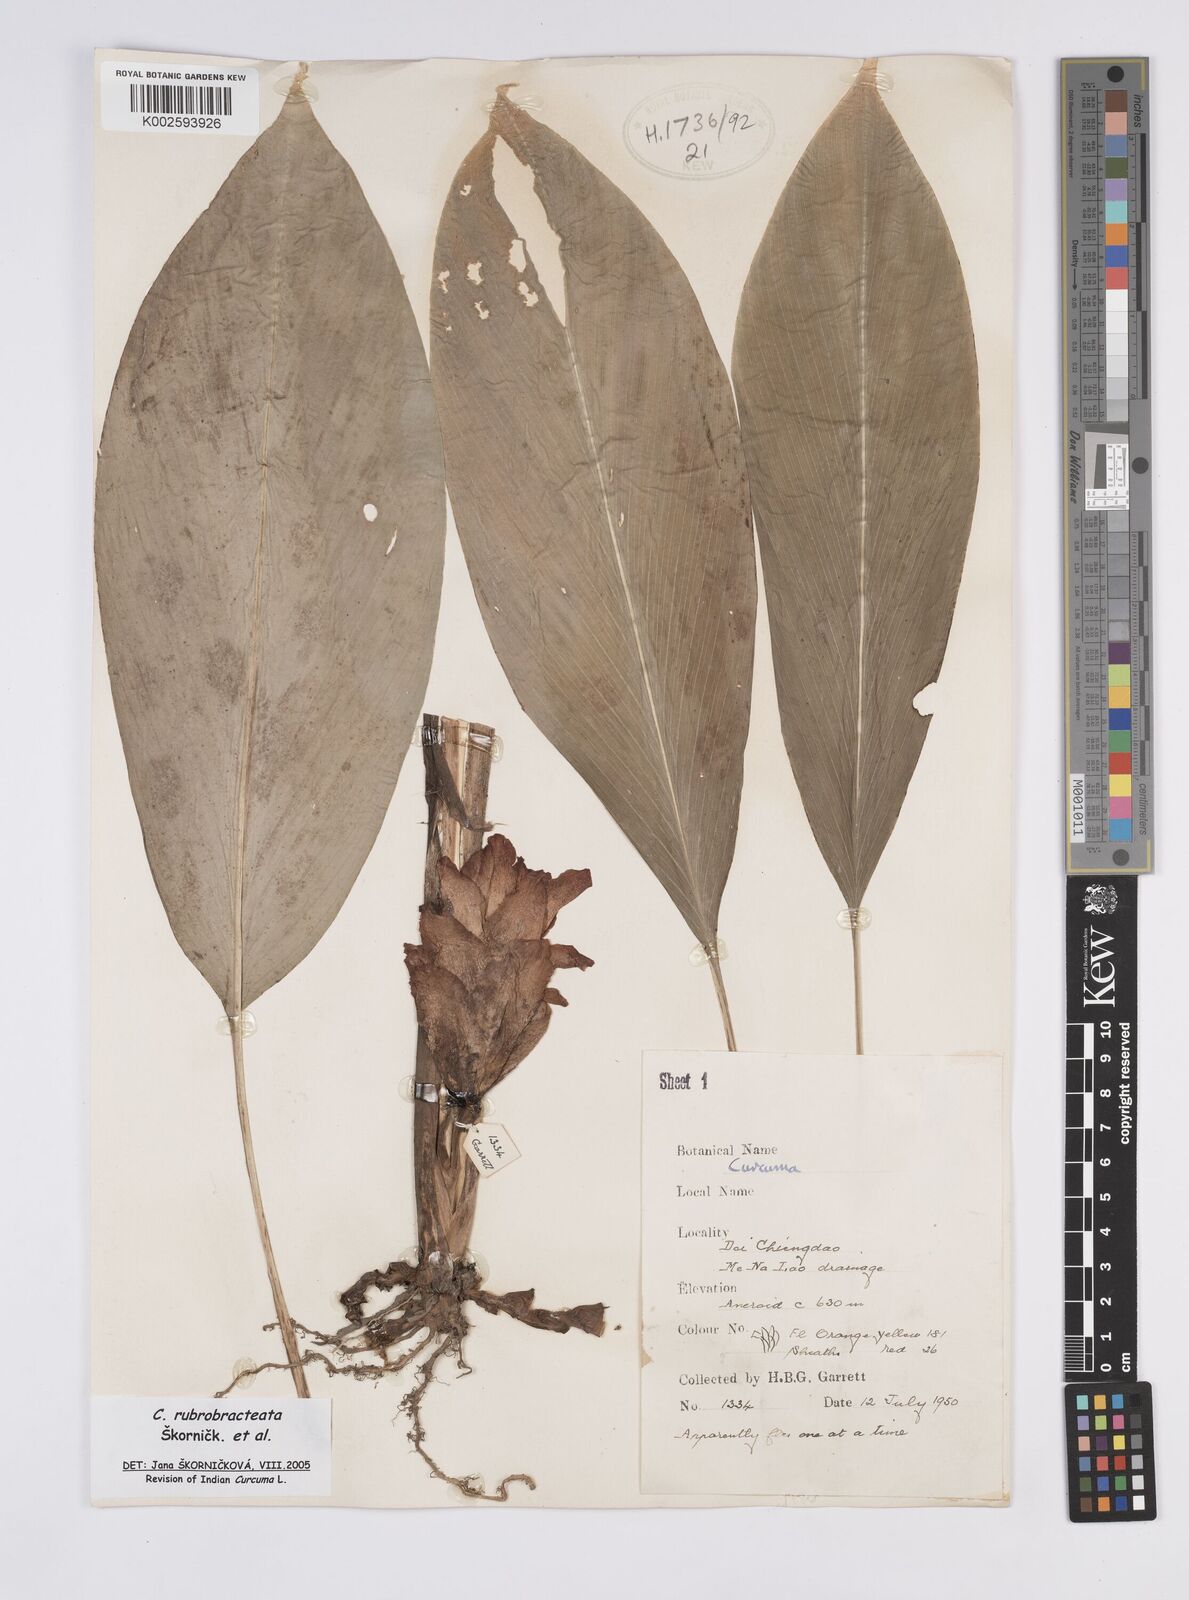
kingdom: Plantae
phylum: Tracheophyta
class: Liliopsida
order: Zingiberales
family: Zingiberaceae
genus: Curcuma
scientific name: Curcuma rubrobracteata
